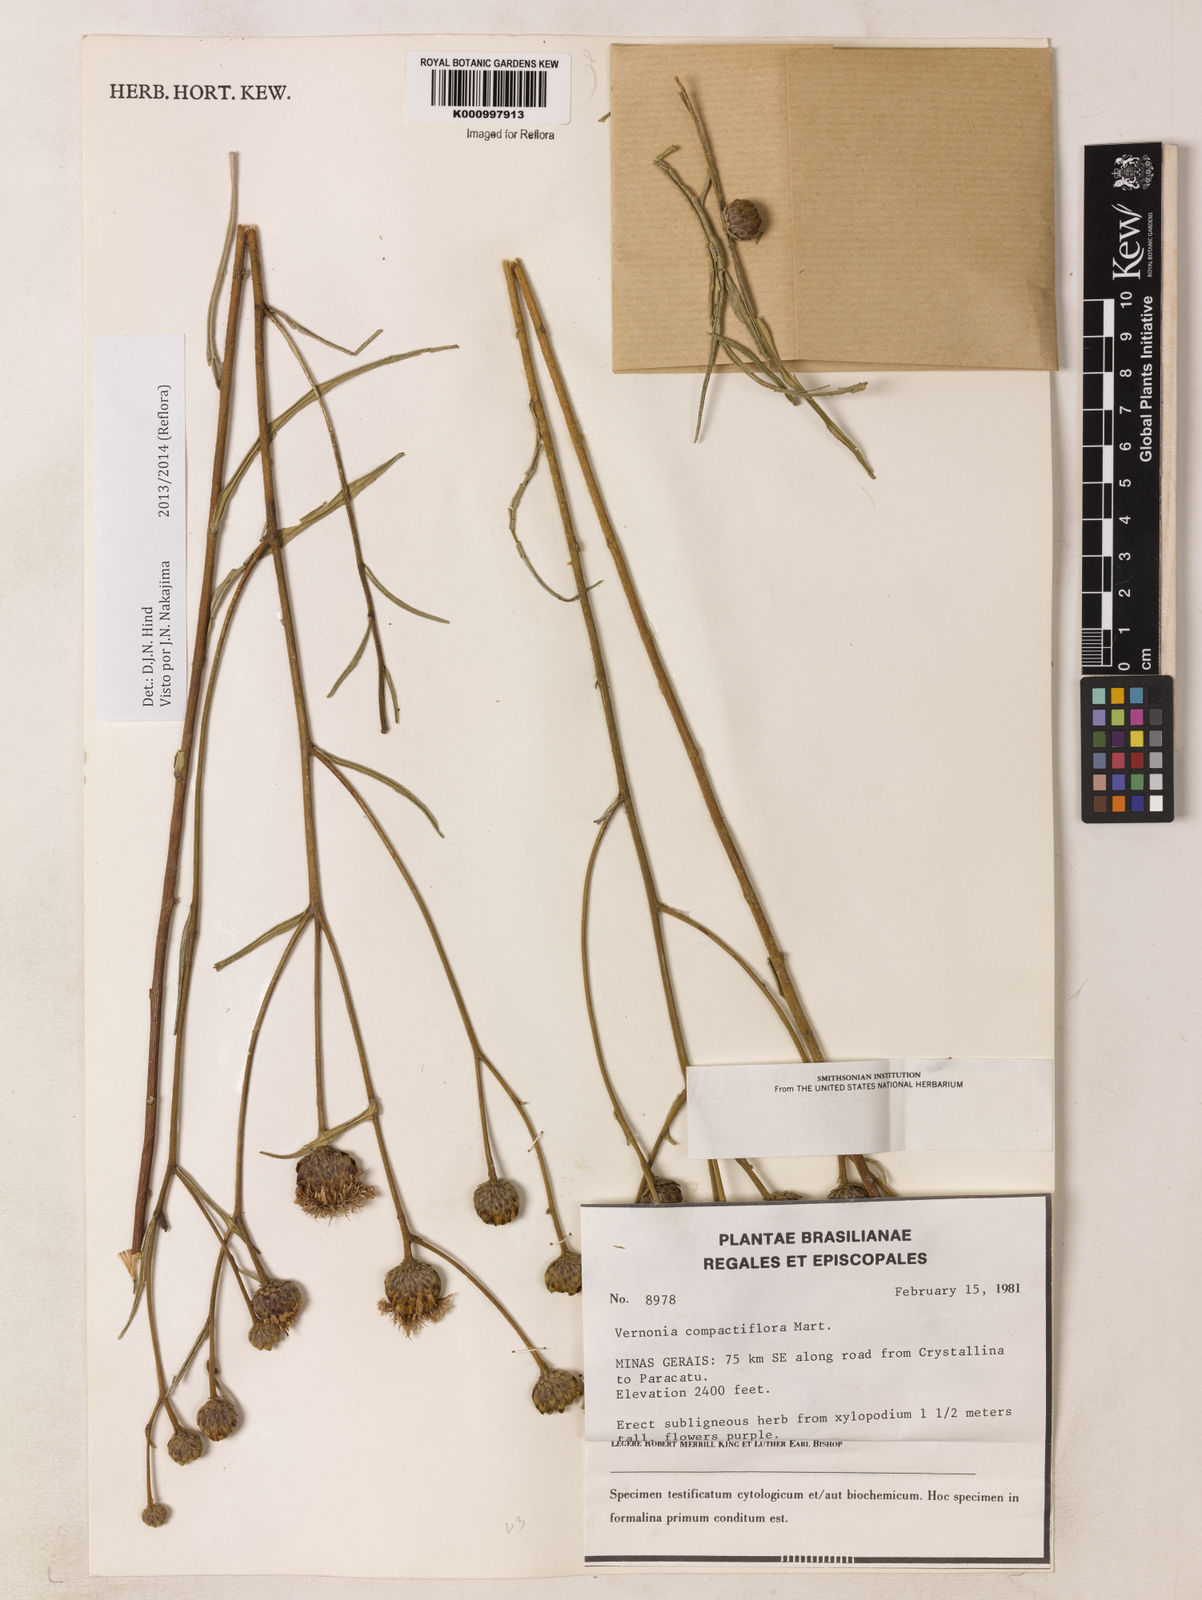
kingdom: Plantae
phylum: Tracheophyta
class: Magnoliopsida
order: Asterales
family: Asteraceae
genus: Lessingianthus
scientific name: Lessingianthus compactiflorus
